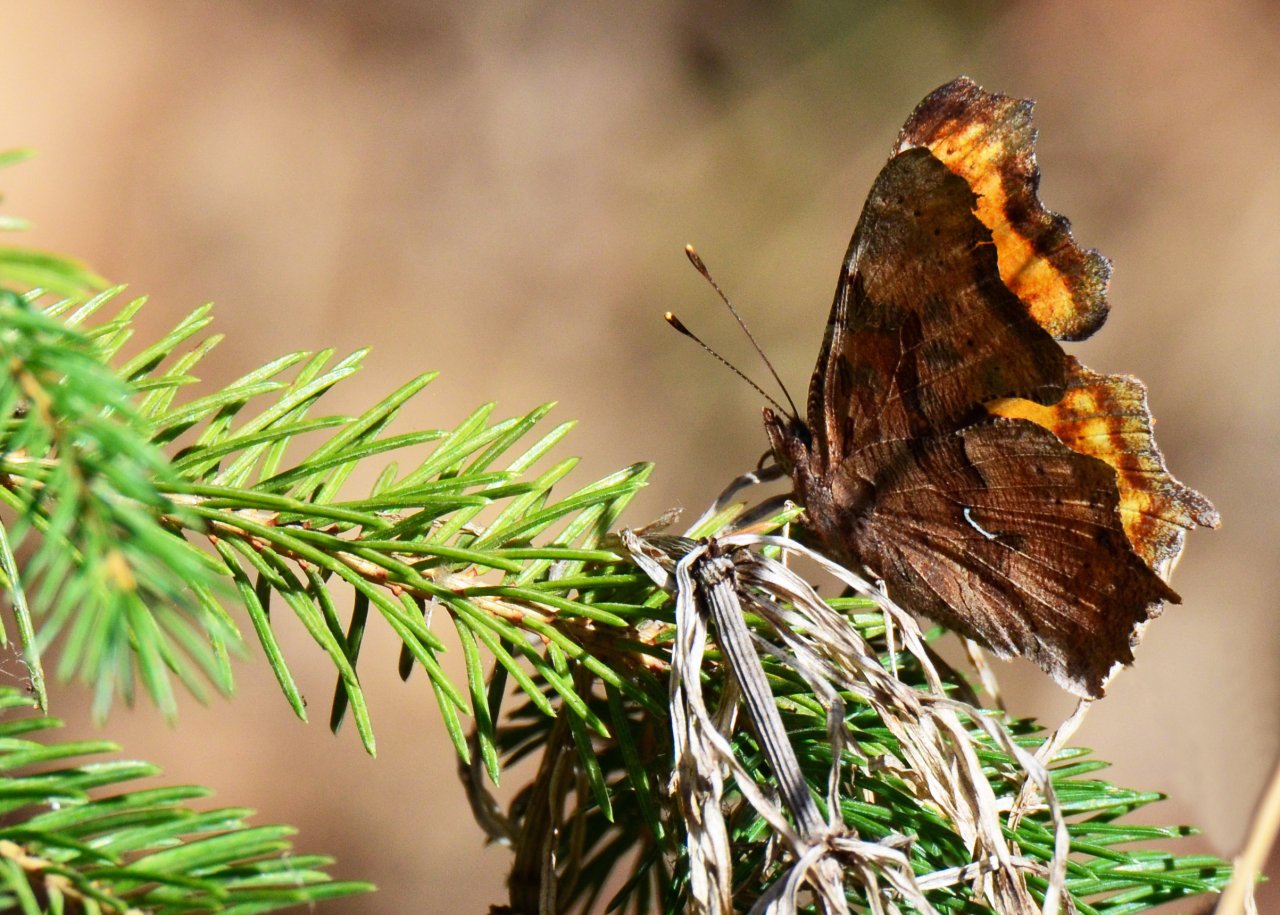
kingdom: Animalia
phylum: Arthropoda
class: Insecta
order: Lepidoptera
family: Nymphalidae
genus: Polygonia
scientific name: Polygonia progne
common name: Gray Comma
